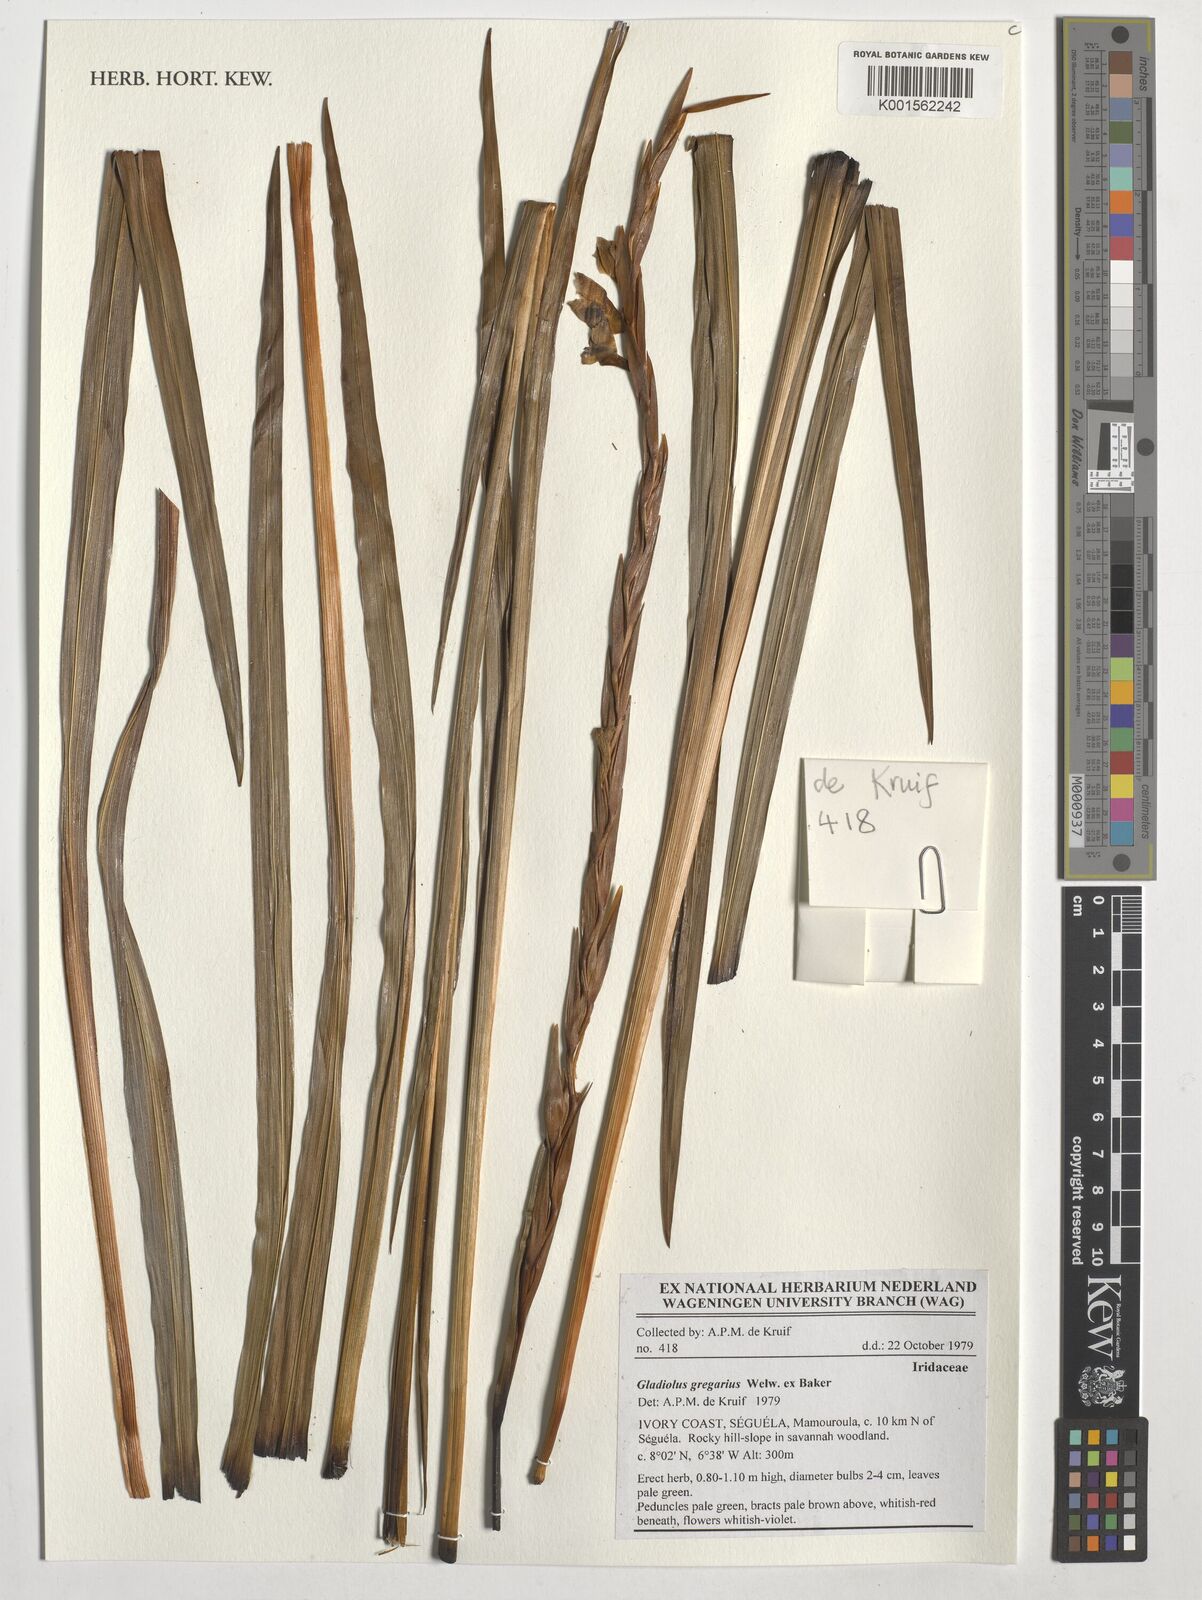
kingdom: Plantae
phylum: Tracheophyta
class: Liliopsida
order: Asparagales
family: Iridaceae
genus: Gladiolus
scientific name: Gladiolus gregarius
